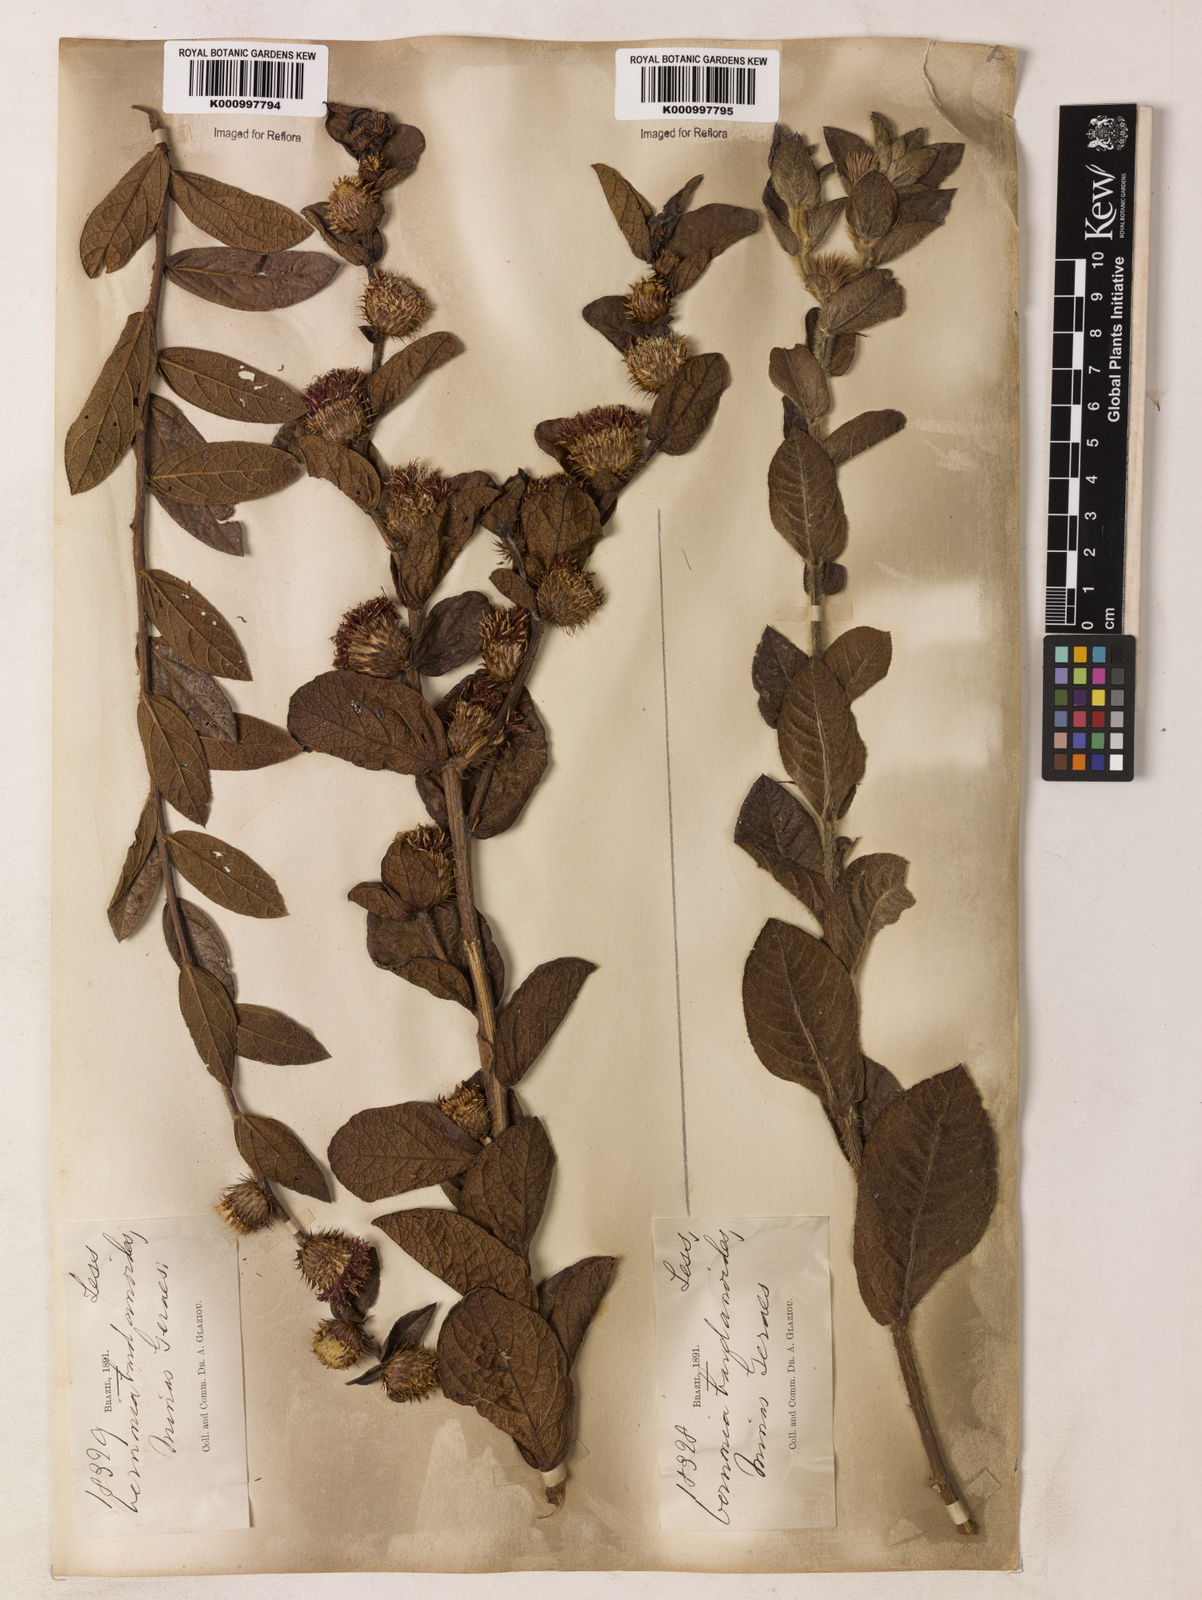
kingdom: Plantae
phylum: Tracheophyta
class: Magnoliopsida
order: Asterales
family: Asteraceae
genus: Lessingianthus
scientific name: Lessingianthus bardanioides
